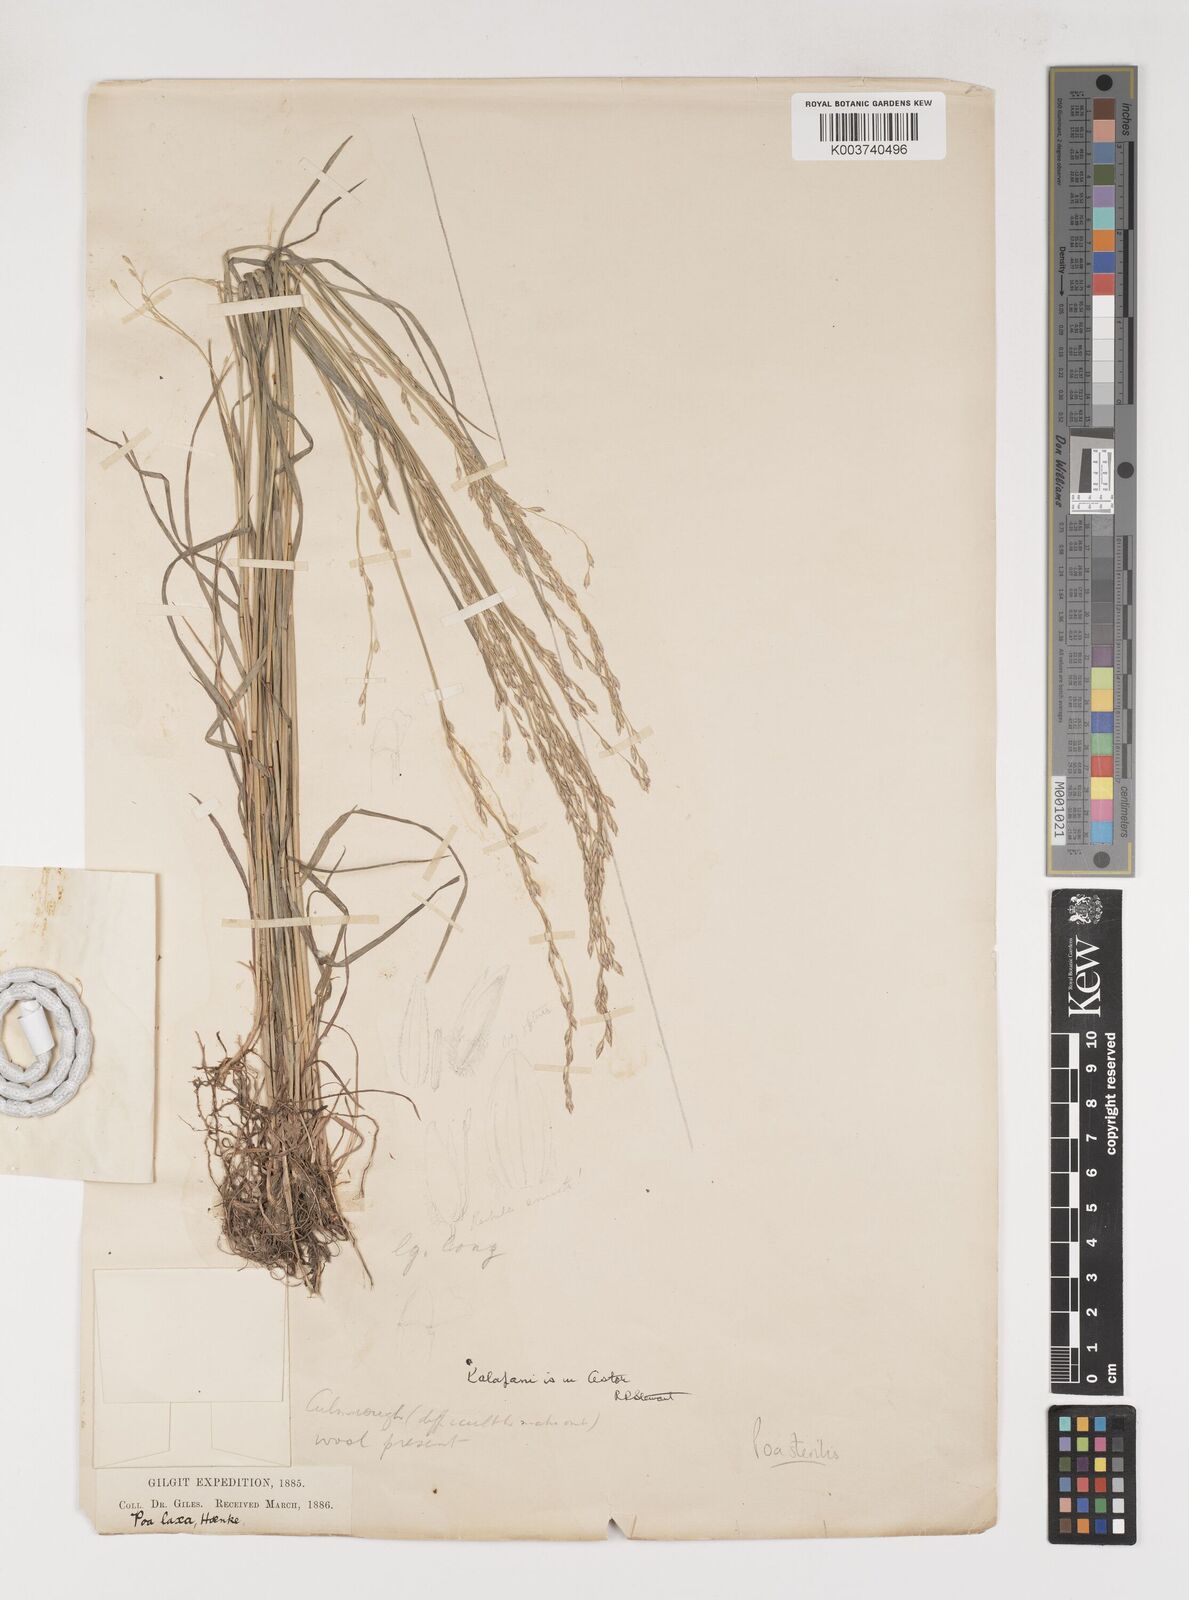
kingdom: Plantae
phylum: Tracheophyta
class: Liliopsida
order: Poales
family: Poaceae
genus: Poa
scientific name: Poa sterilis
